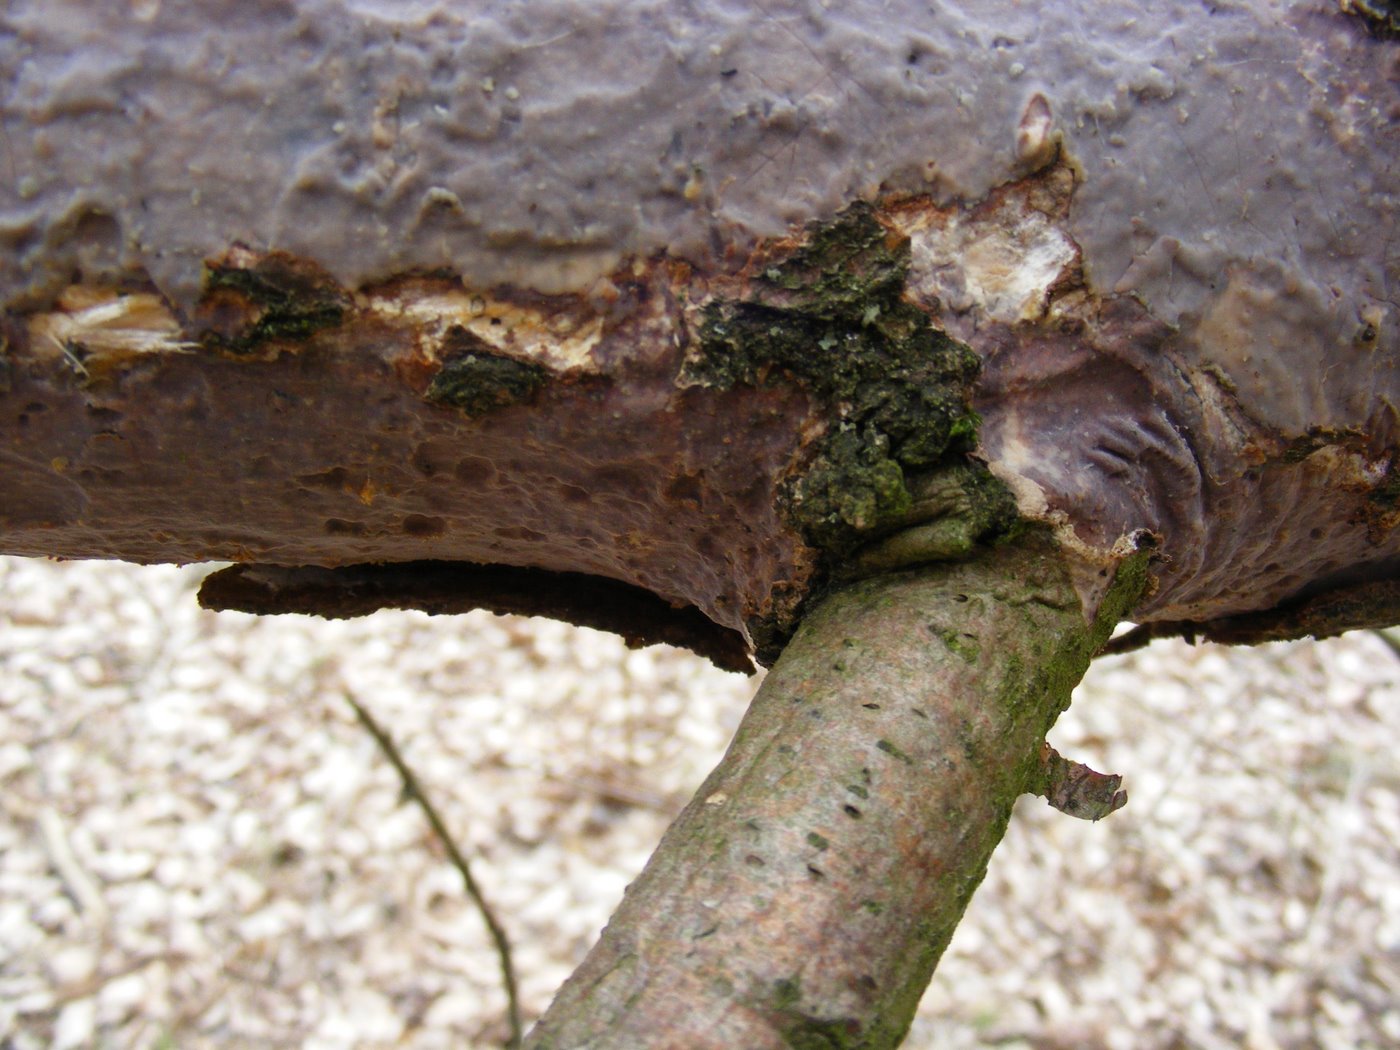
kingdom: Fungi
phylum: Basidiomycota
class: Agaricomycetes
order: Corticiales
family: Vuilleminiaceae
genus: Vuilleminia
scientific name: Vuilleminia comedens
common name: almindelig barksprænger
